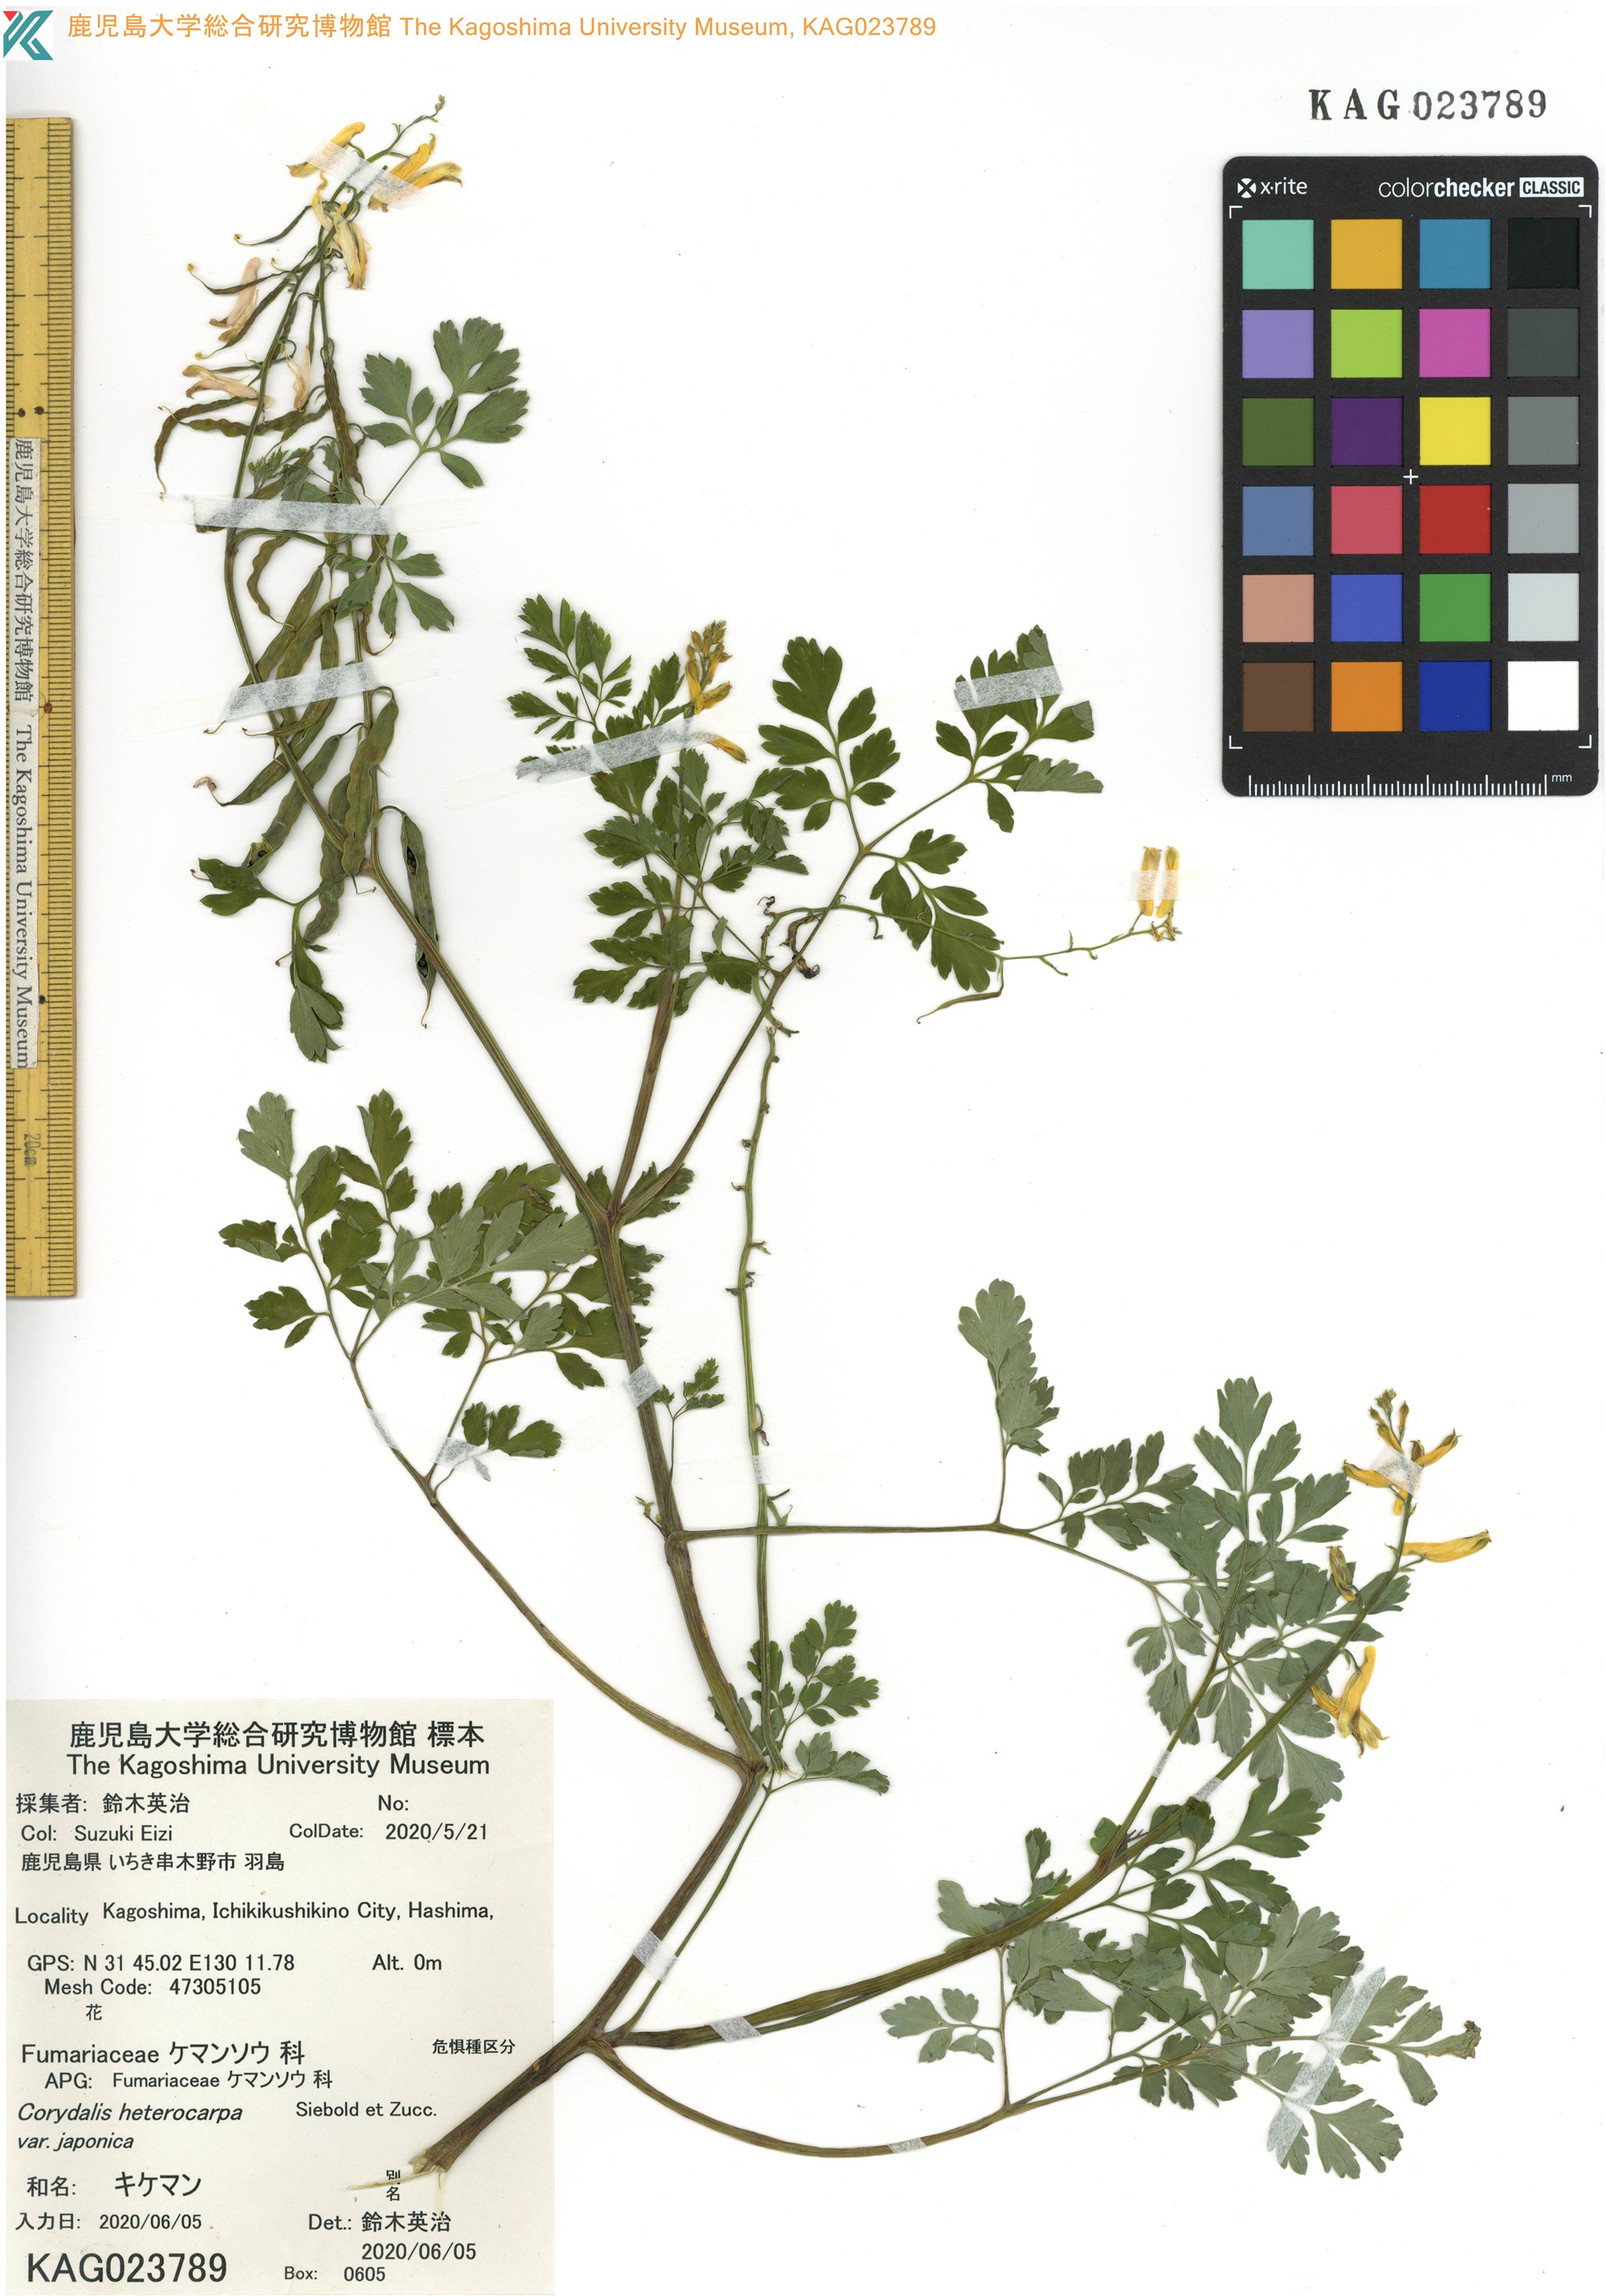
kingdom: Plantae
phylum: Tracheophyta
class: Magnoliopsida
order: Ranunculales
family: Papaveraceae
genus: Corydalis
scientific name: Corydalis platycarpa
